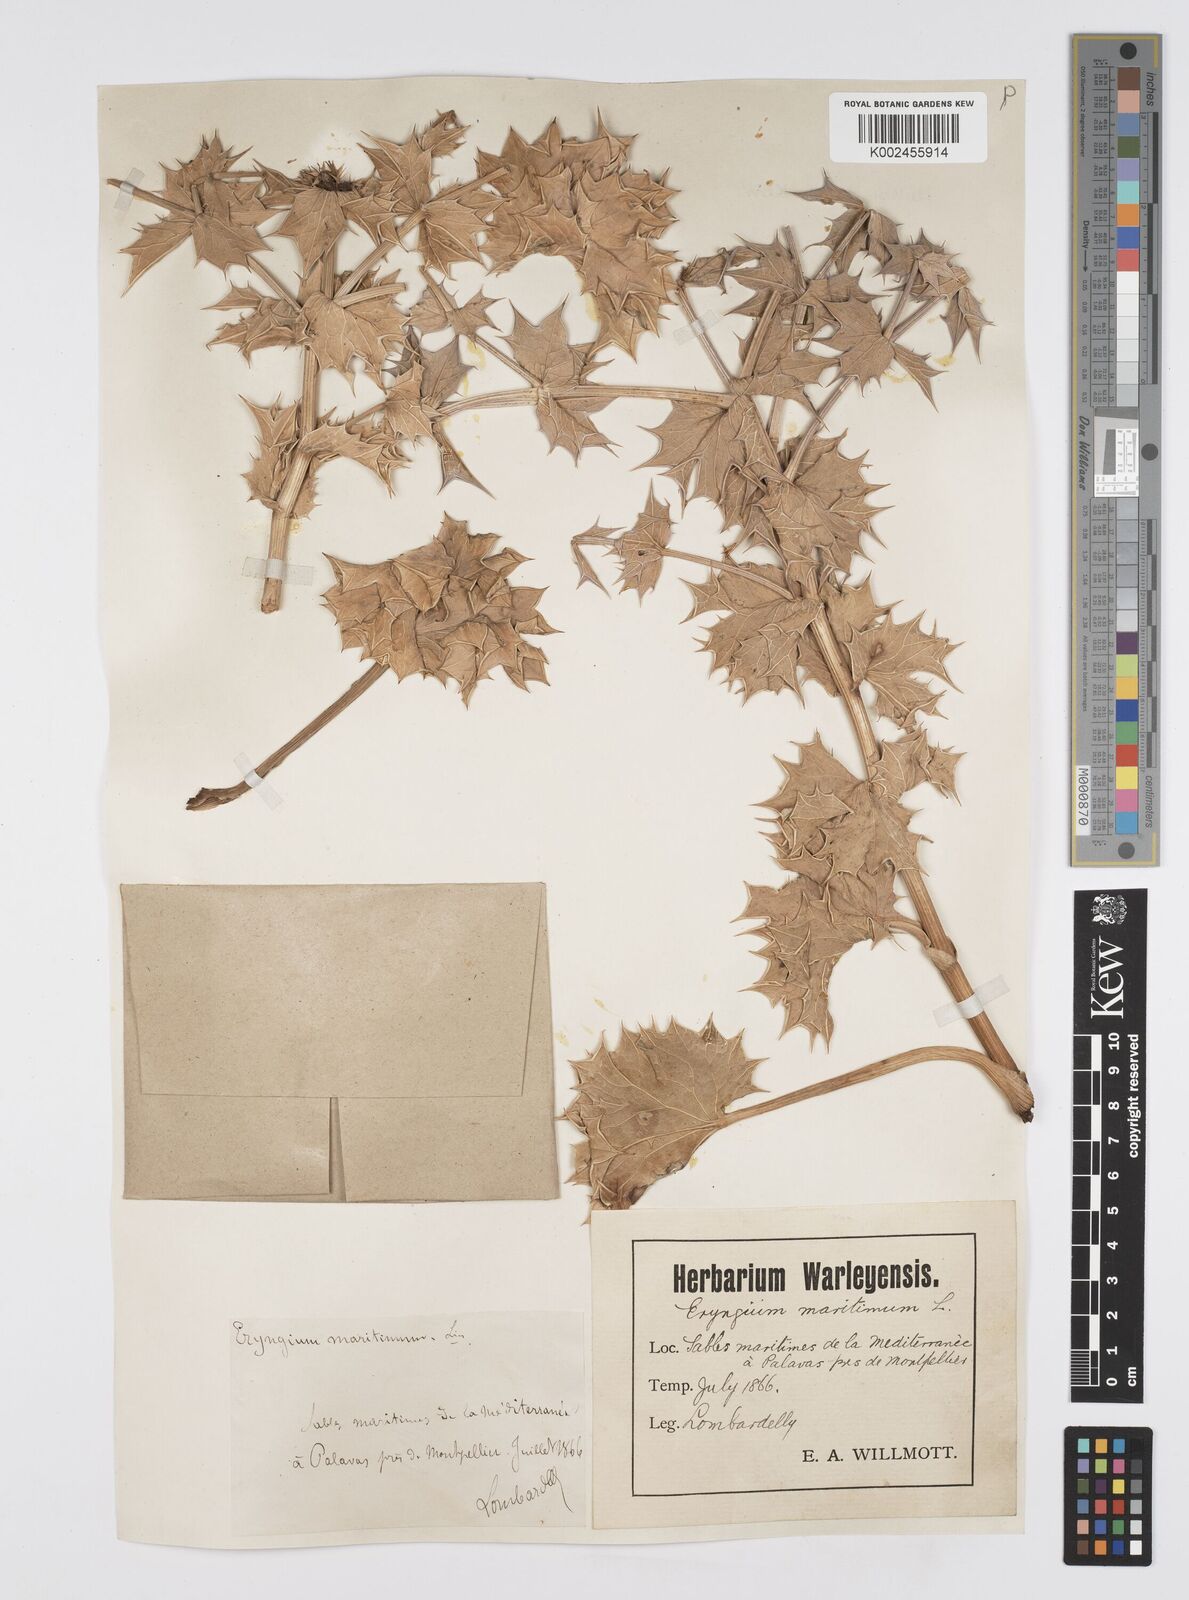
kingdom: Plantae
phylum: Tracheophyta
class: Magnoliopsida
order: Apiales
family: Apiaceae
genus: Eryngium
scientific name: Eryngium maritimum
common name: Sea-holly
